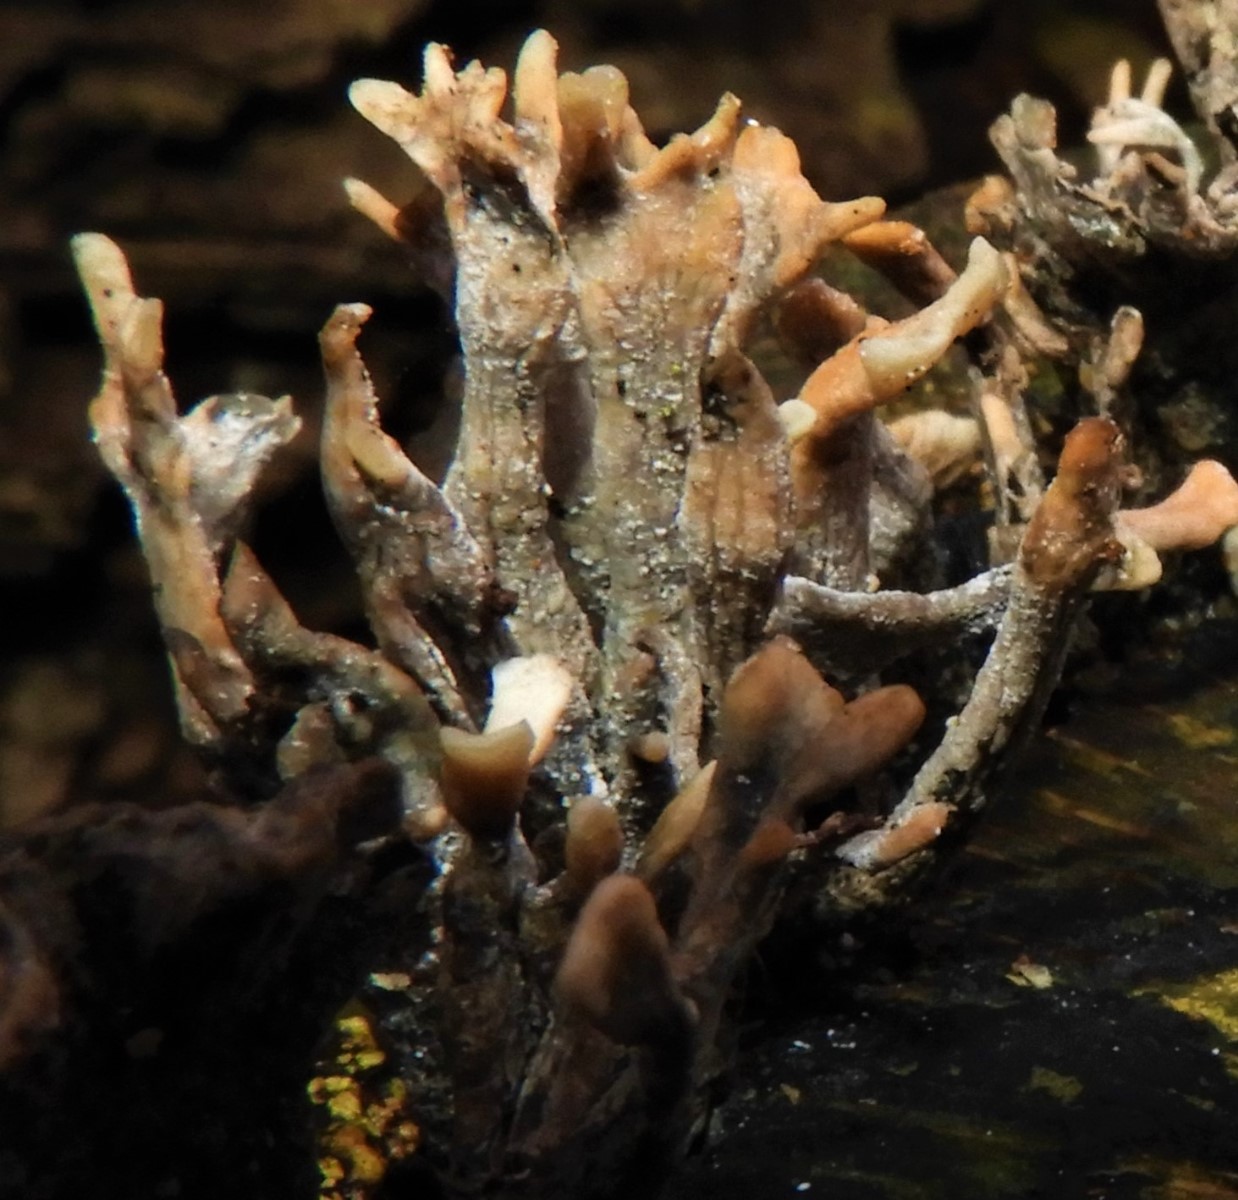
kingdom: Fungi
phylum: Ascomycota
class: Sordariomycetes
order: Xylariales
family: Xylariaceae
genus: Xylaria
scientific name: Xylaria hypoxylon
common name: grenet stødsvamp
